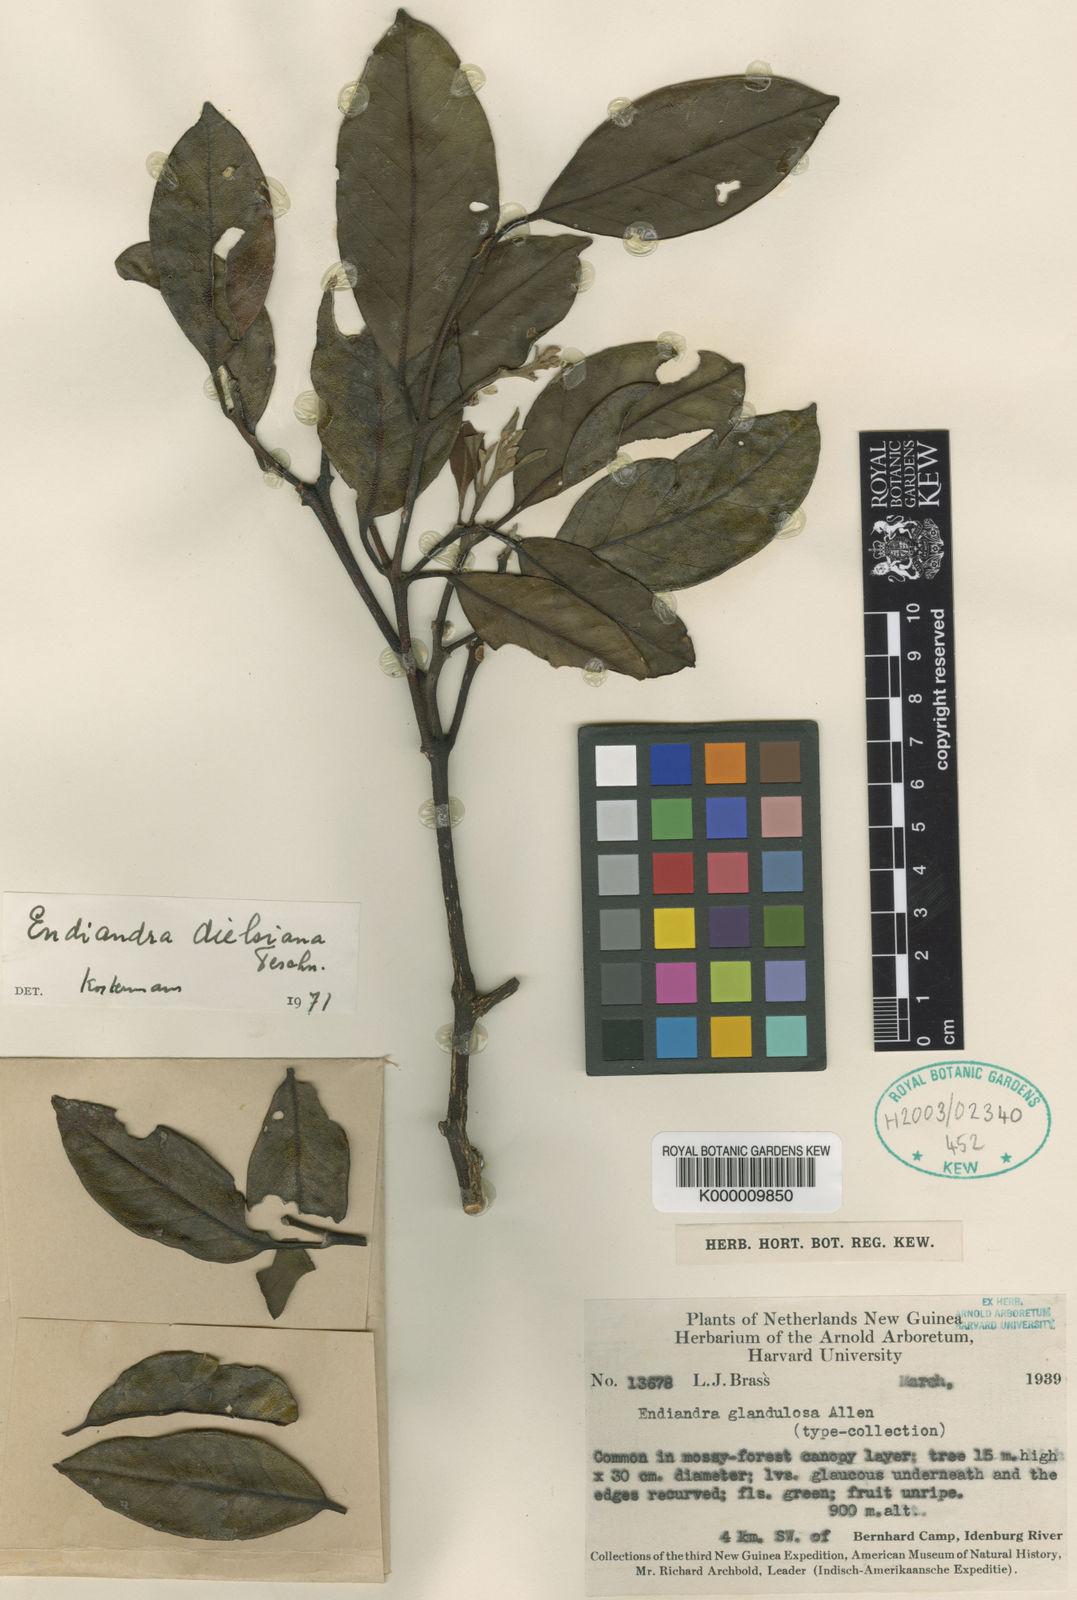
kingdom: Plantae
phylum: Tracheophyta
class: Magnoliopsida
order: Laurales
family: Lauraceae
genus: Endiandra
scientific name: Endiandra dielsiana
